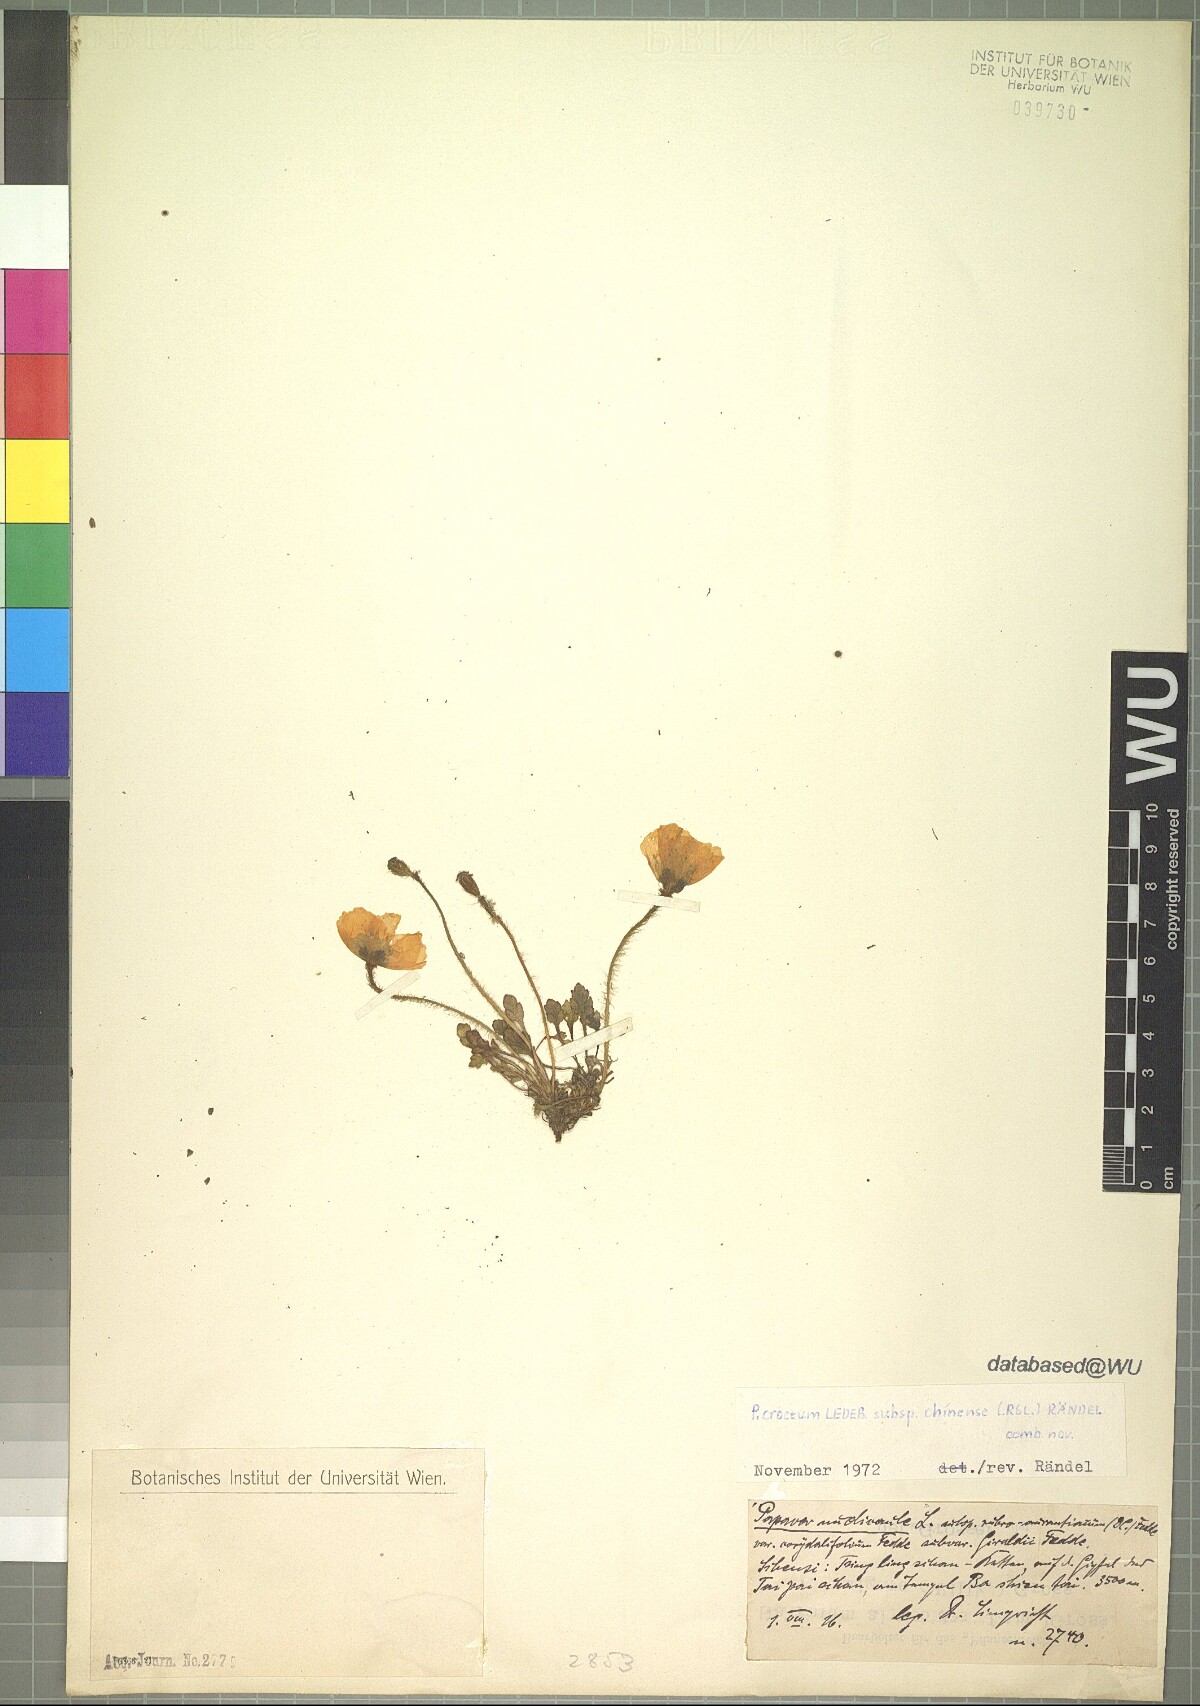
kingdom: Plantae
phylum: Tracheophyta
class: Magnoliopsida
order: Ranunculales
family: Papaveraceae
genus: Papaver
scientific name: Papaver nudicaule
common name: Arctic poppy
